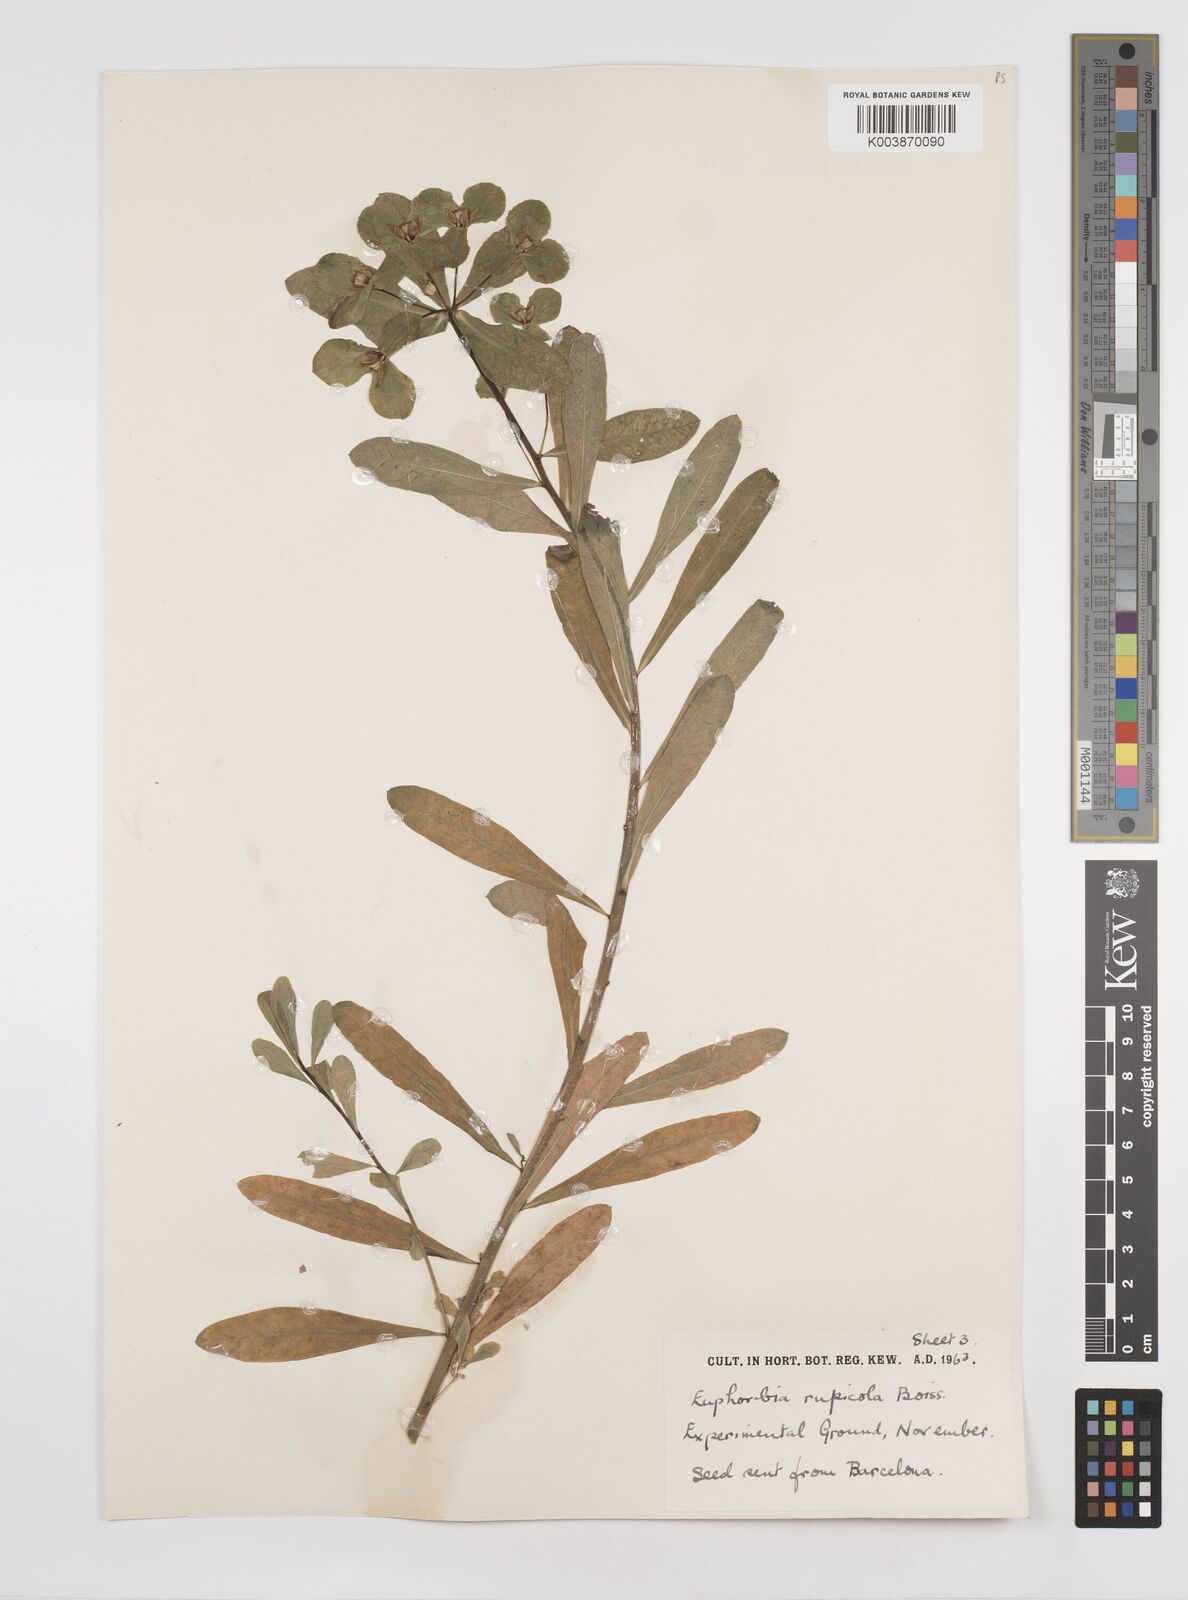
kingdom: Plantae
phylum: Tracheophyta
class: Magnoliopsida
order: Malpighiales
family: Euphorbiaceae
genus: Euphorbia
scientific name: Euphorbia
